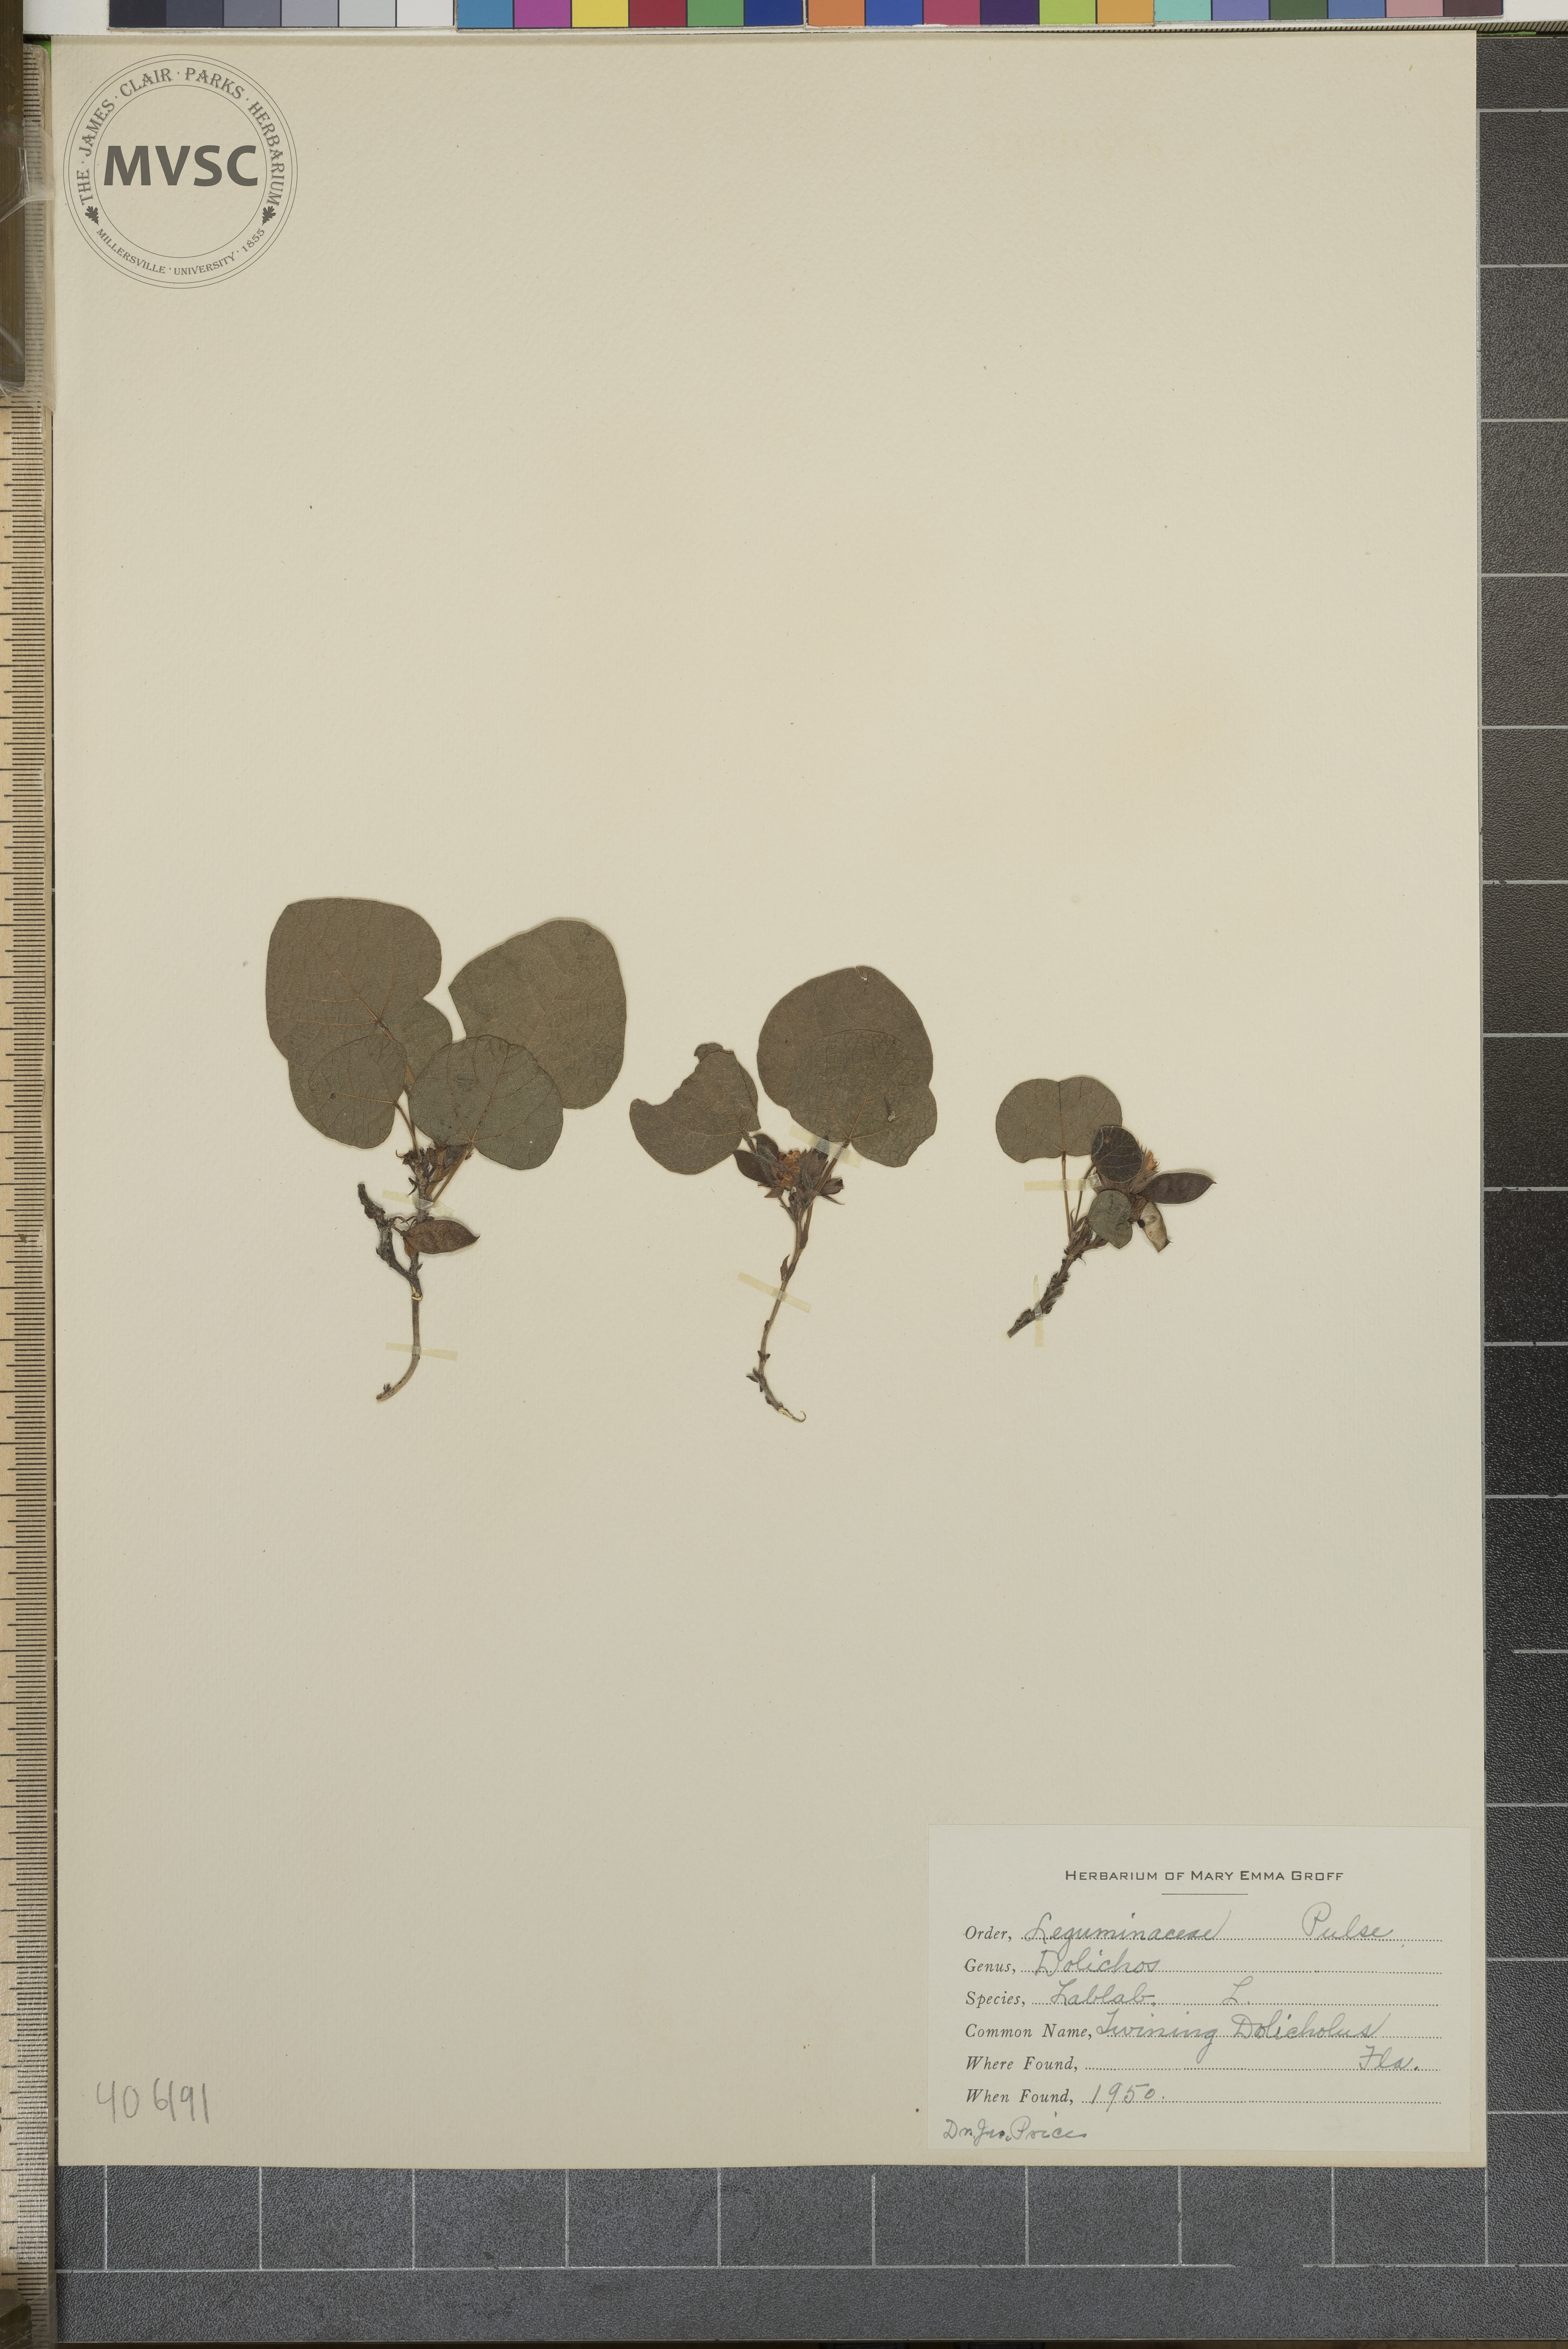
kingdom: Plantae
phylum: Tracheophyta
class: Magnoliopsida
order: Fabales
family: Fabaceae
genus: Lablab
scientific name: Lablab purpureus
